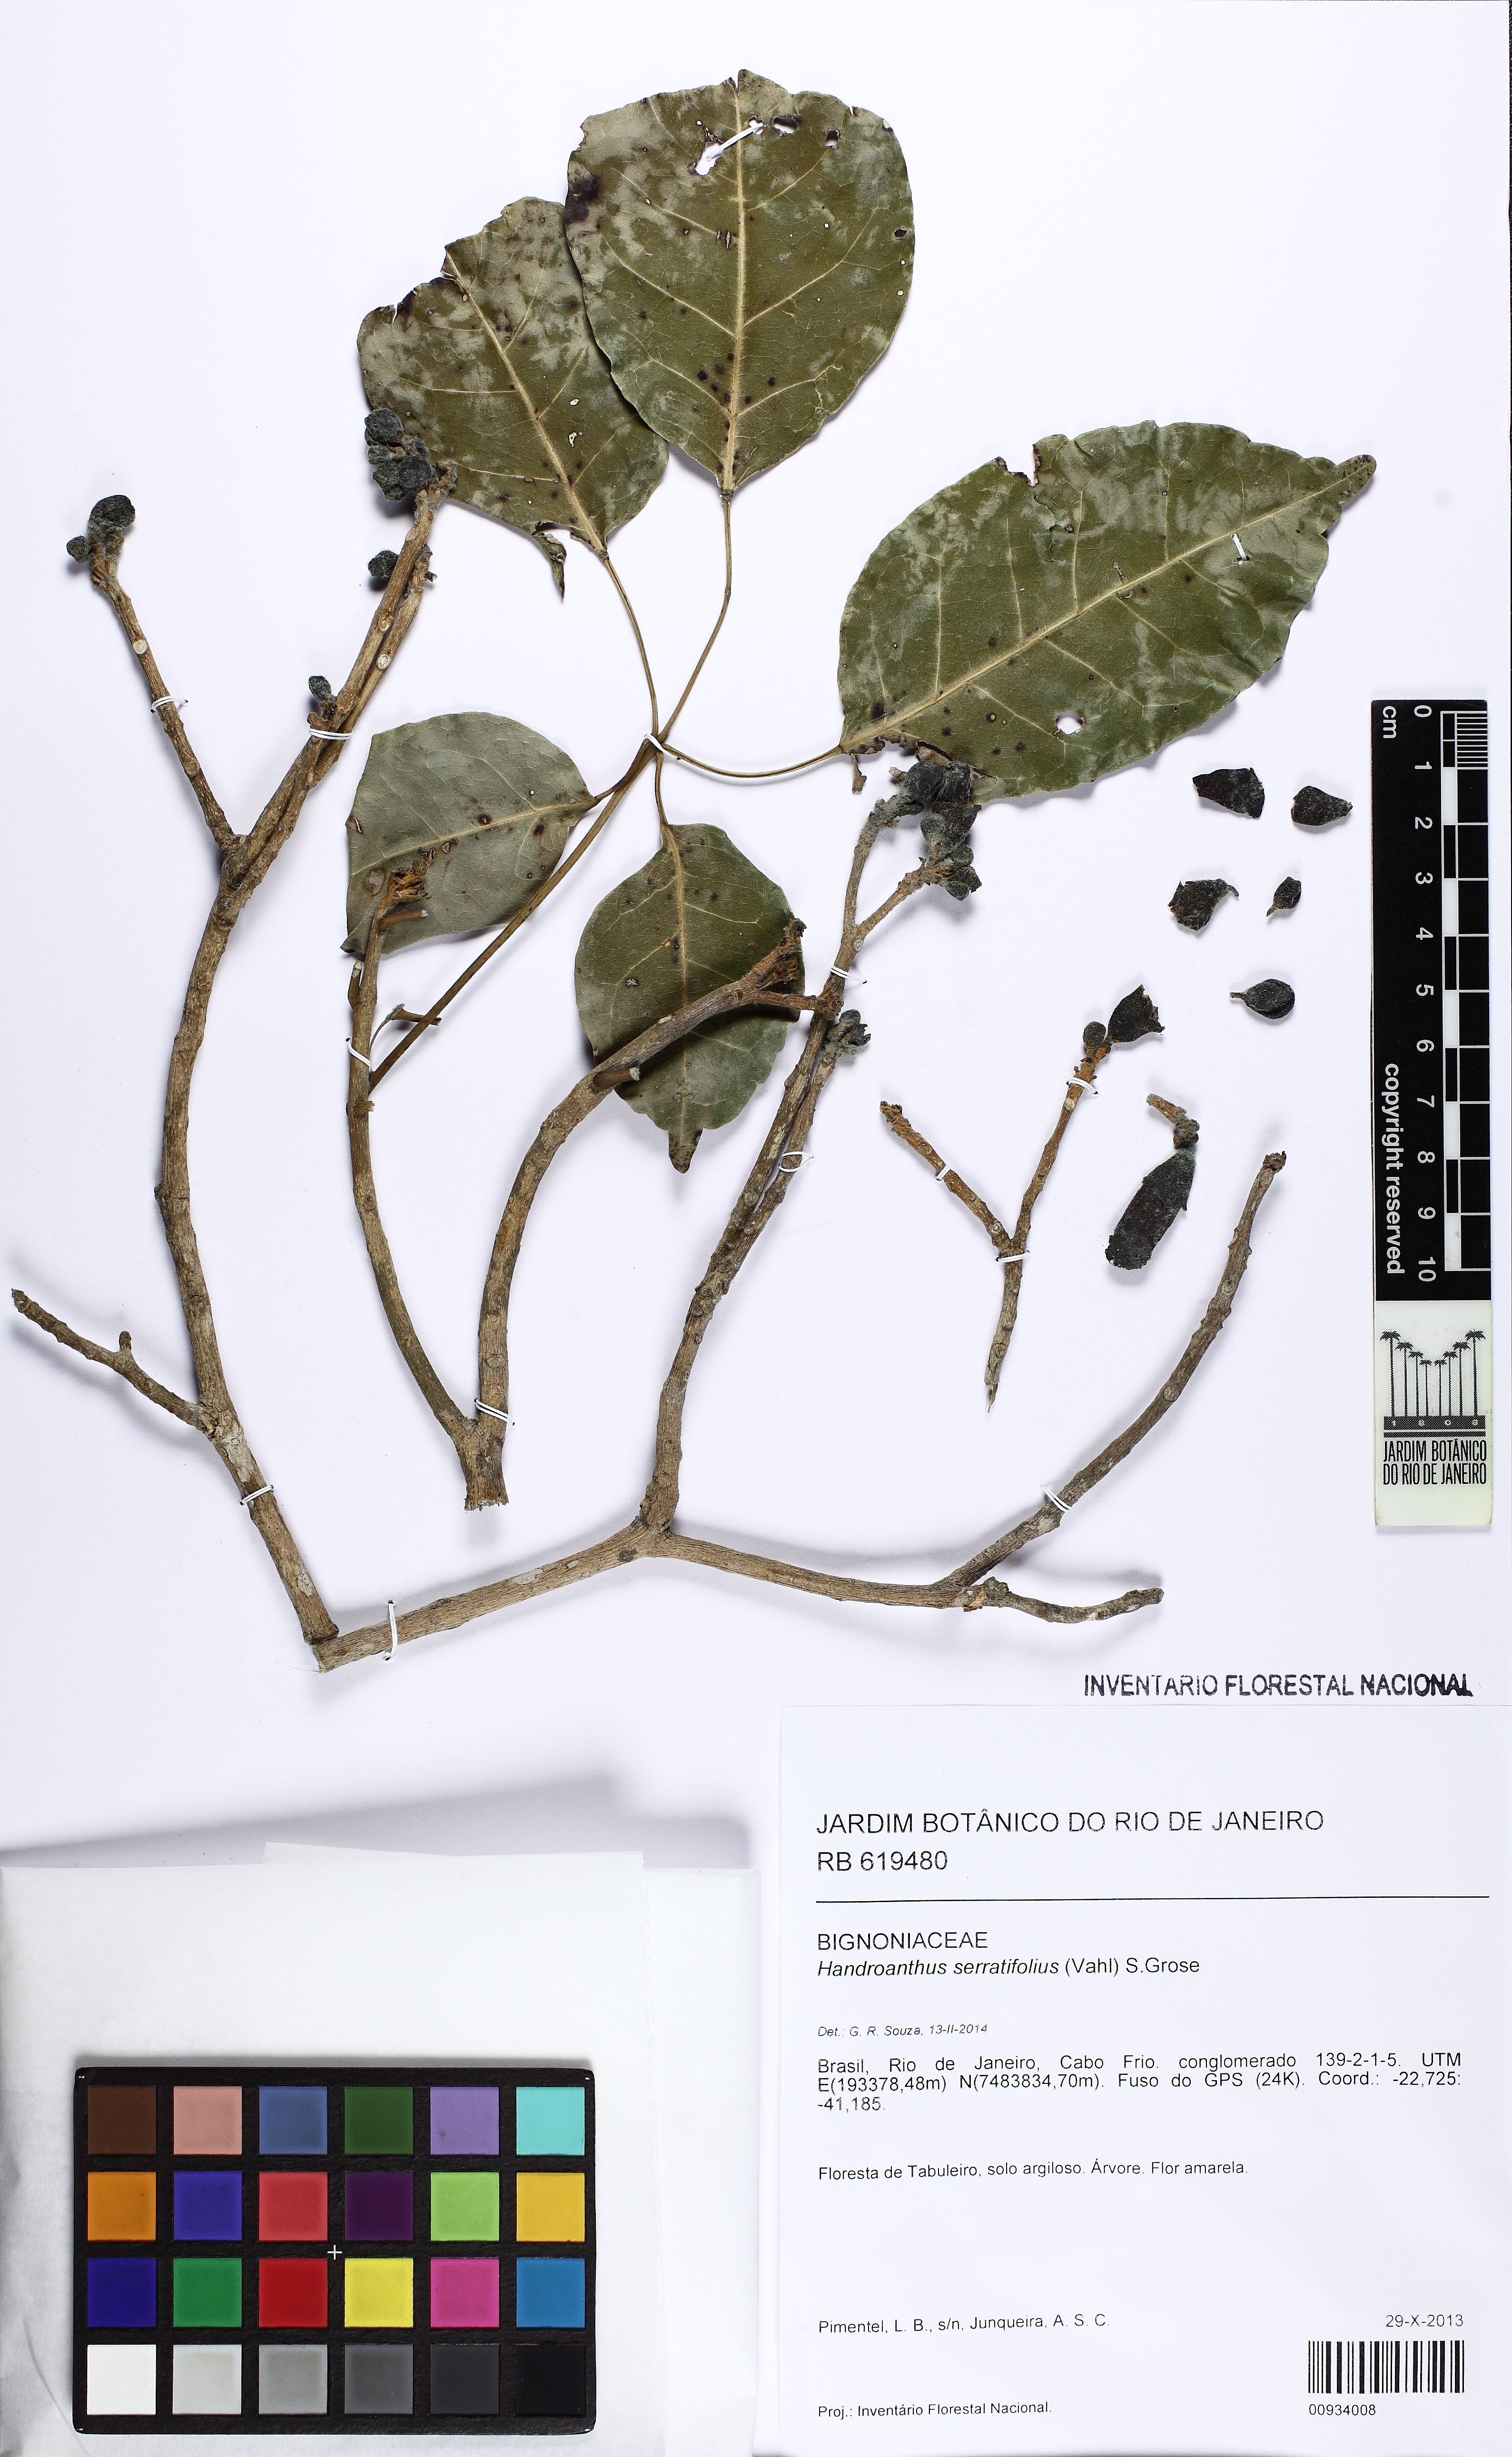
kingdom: Plantae
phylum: Tracheophyta
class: Magnoliopsida
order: Lamiales
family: Bignoniaceae
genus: Handroanthus
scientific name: Handroanthus serratifolius
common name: Yellow ipe
